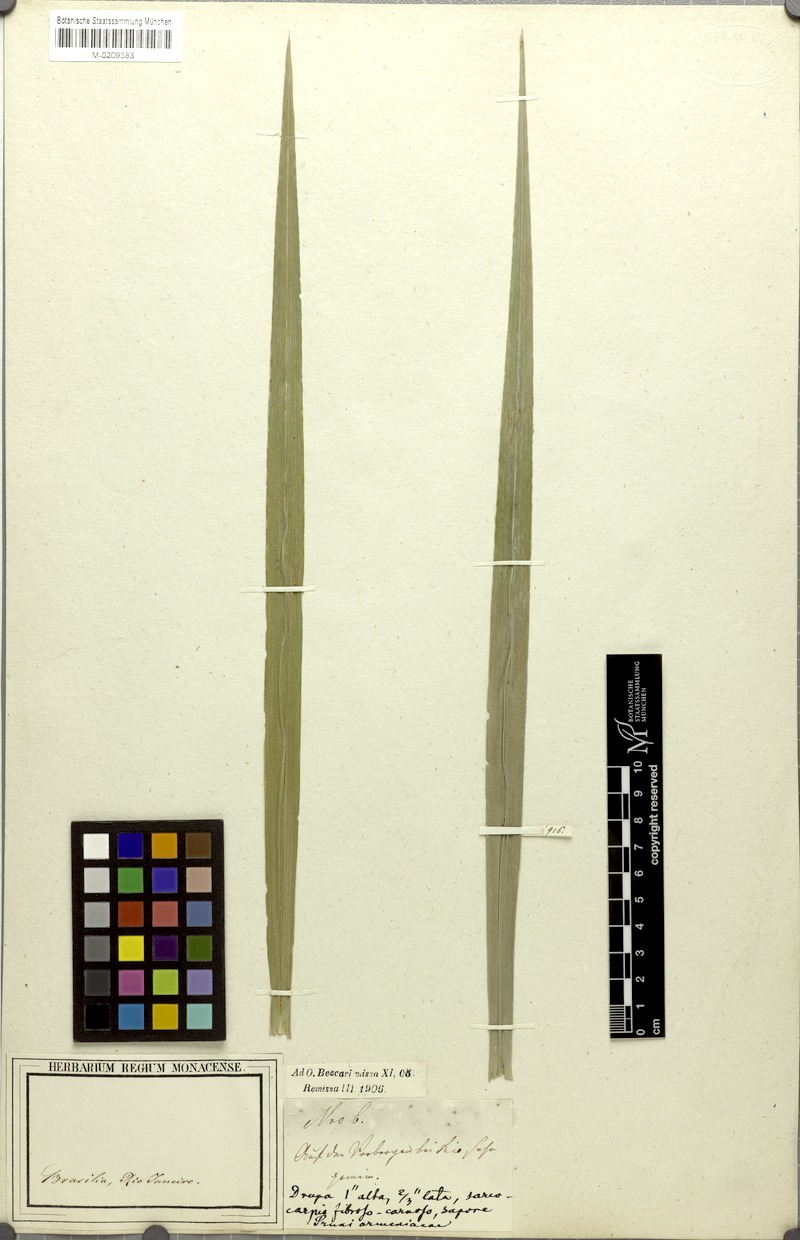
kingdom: Plantae
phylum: Tracheophyta
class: Liliopsida
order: Arecales
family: Arecaceae
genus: Cocos
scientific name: Cocos
